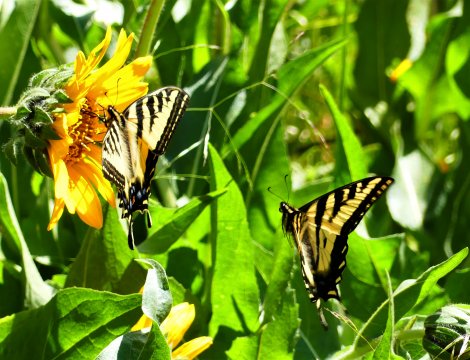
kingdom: Animalia
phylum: Arthropoda
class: Insecta
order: Lepidoptera
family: Papilionidae
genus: Pterourus
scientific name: Pterourus rutulus
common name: Western Tiger Swallowtail
